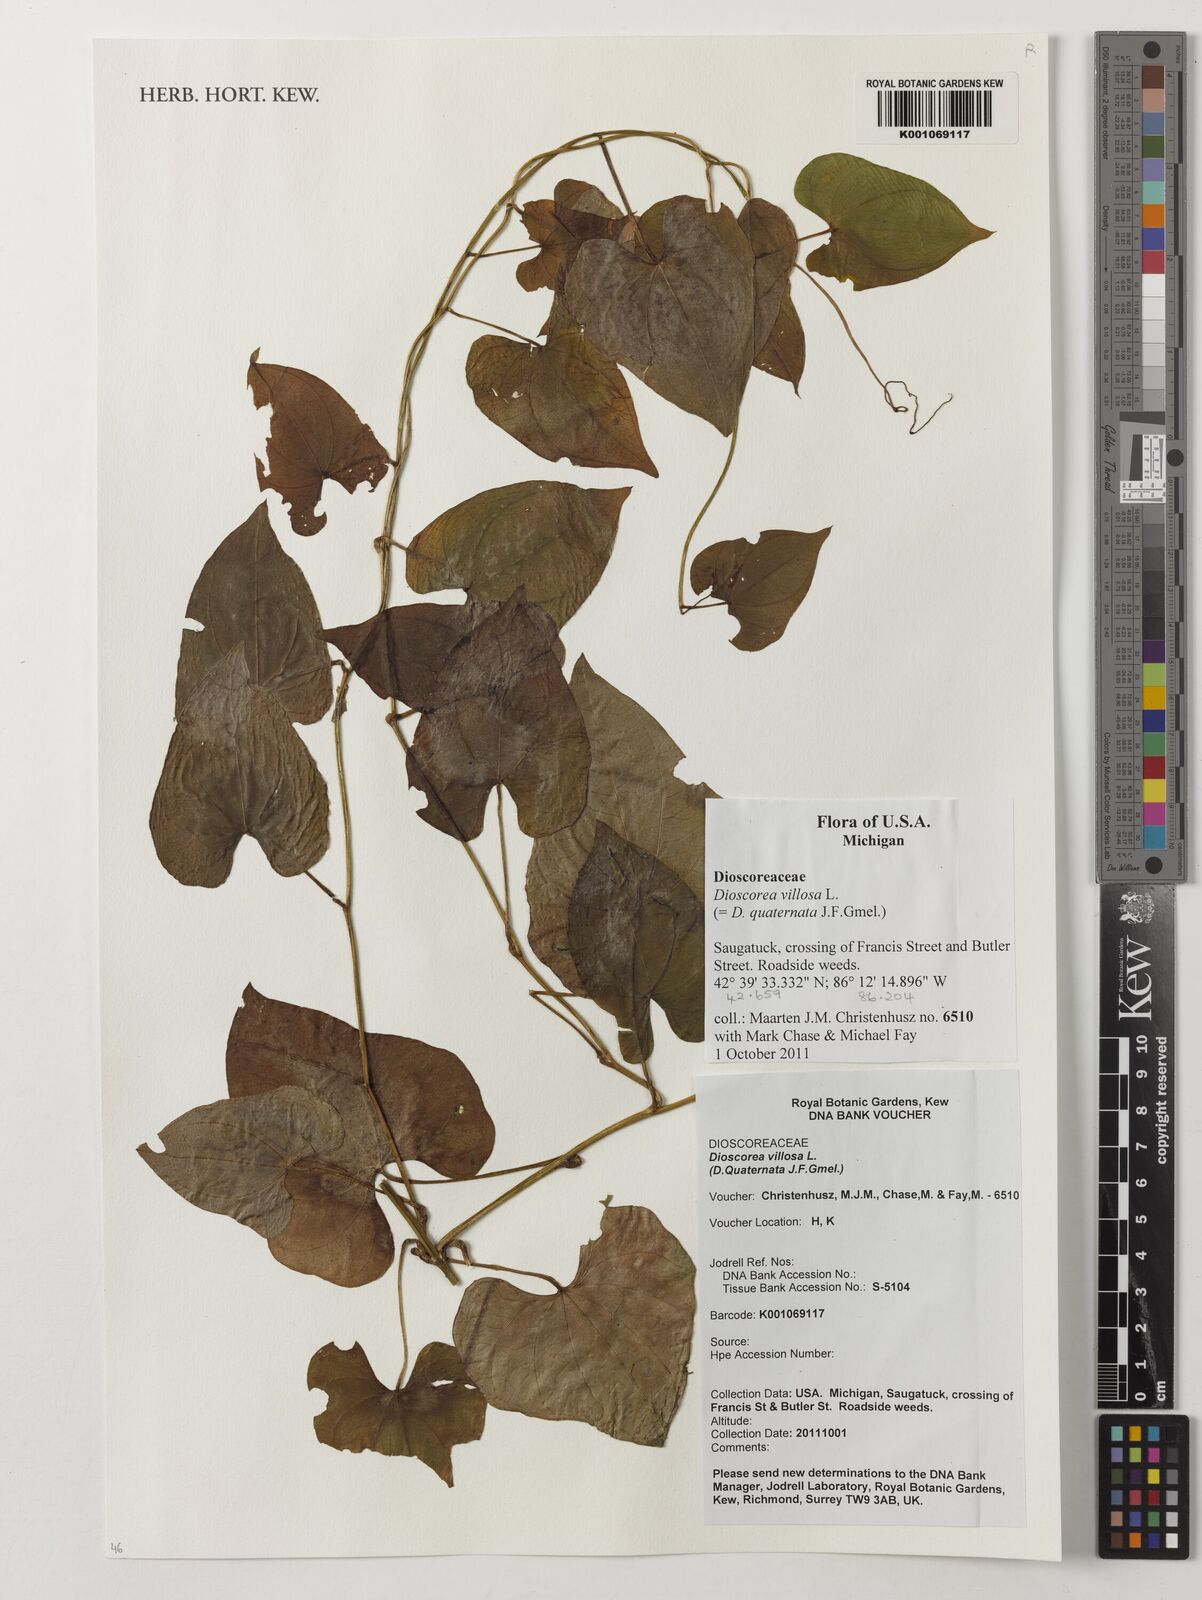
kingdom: Plantae
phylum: Tracheophyta
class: Liliopsida
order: Dioscoreales
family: Dioscoreaceae
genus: Dioscorea
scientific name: Dioscorea villosa
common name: Wild yam
